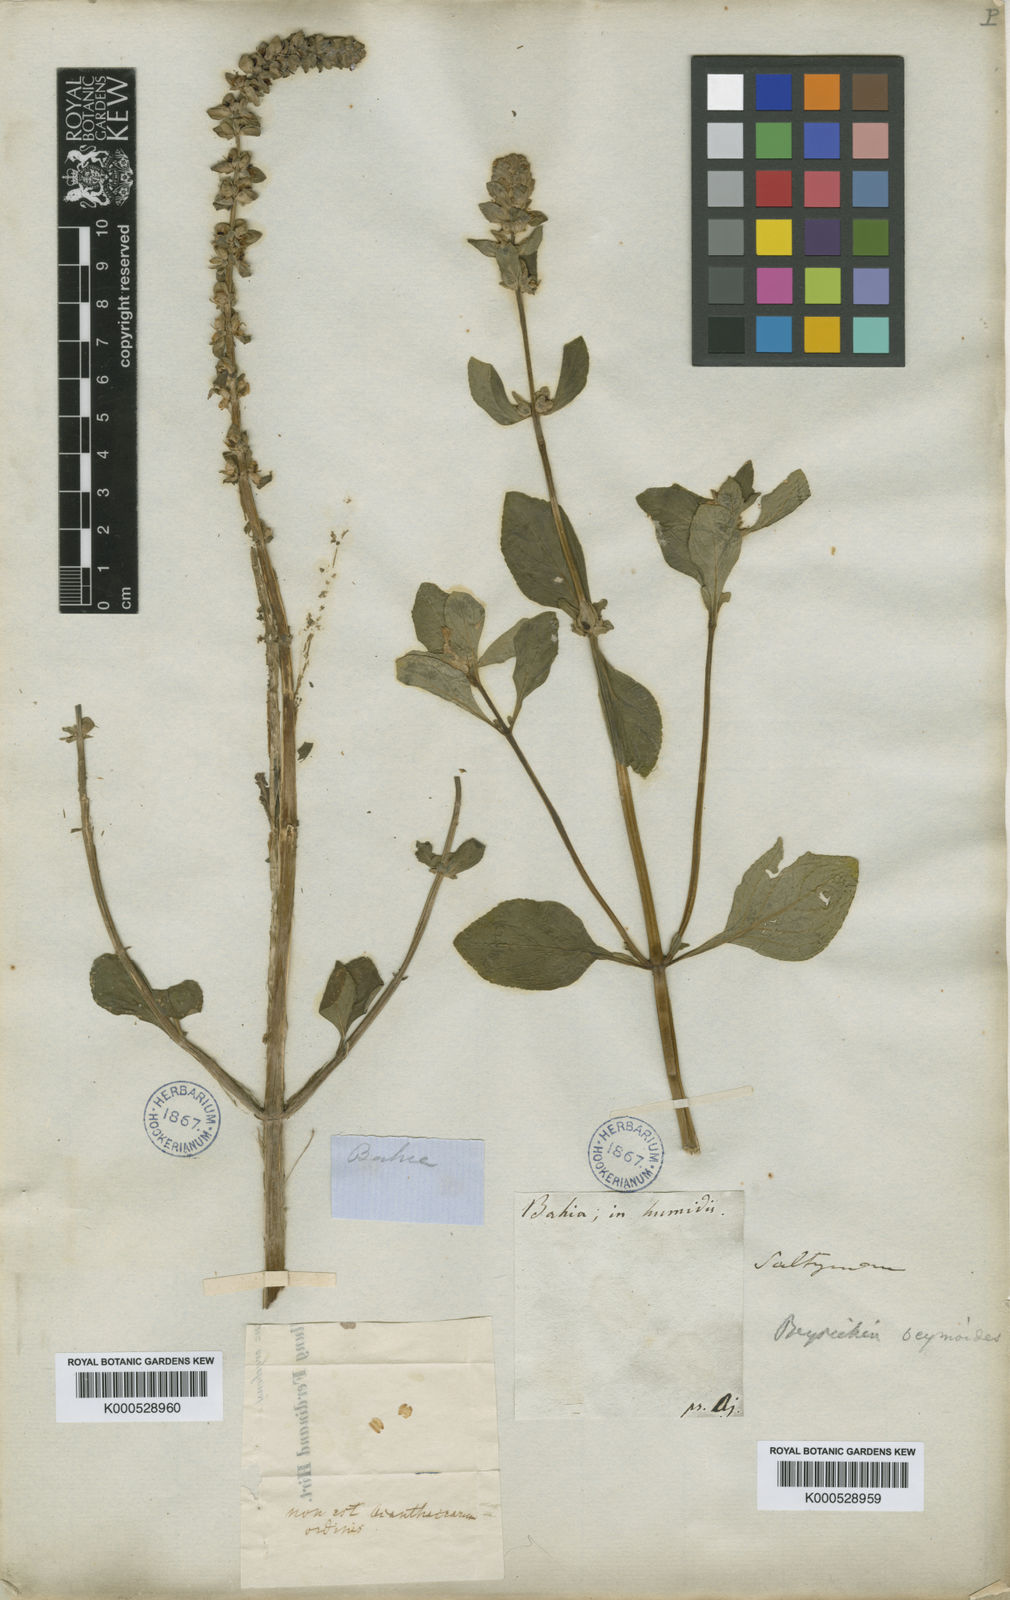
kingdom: Plantae
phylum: Tracheophyta
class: Magnoliopsida
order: Lamiales
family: Plantaginaceae
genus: Matourea
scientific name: Matourea ocymoides
